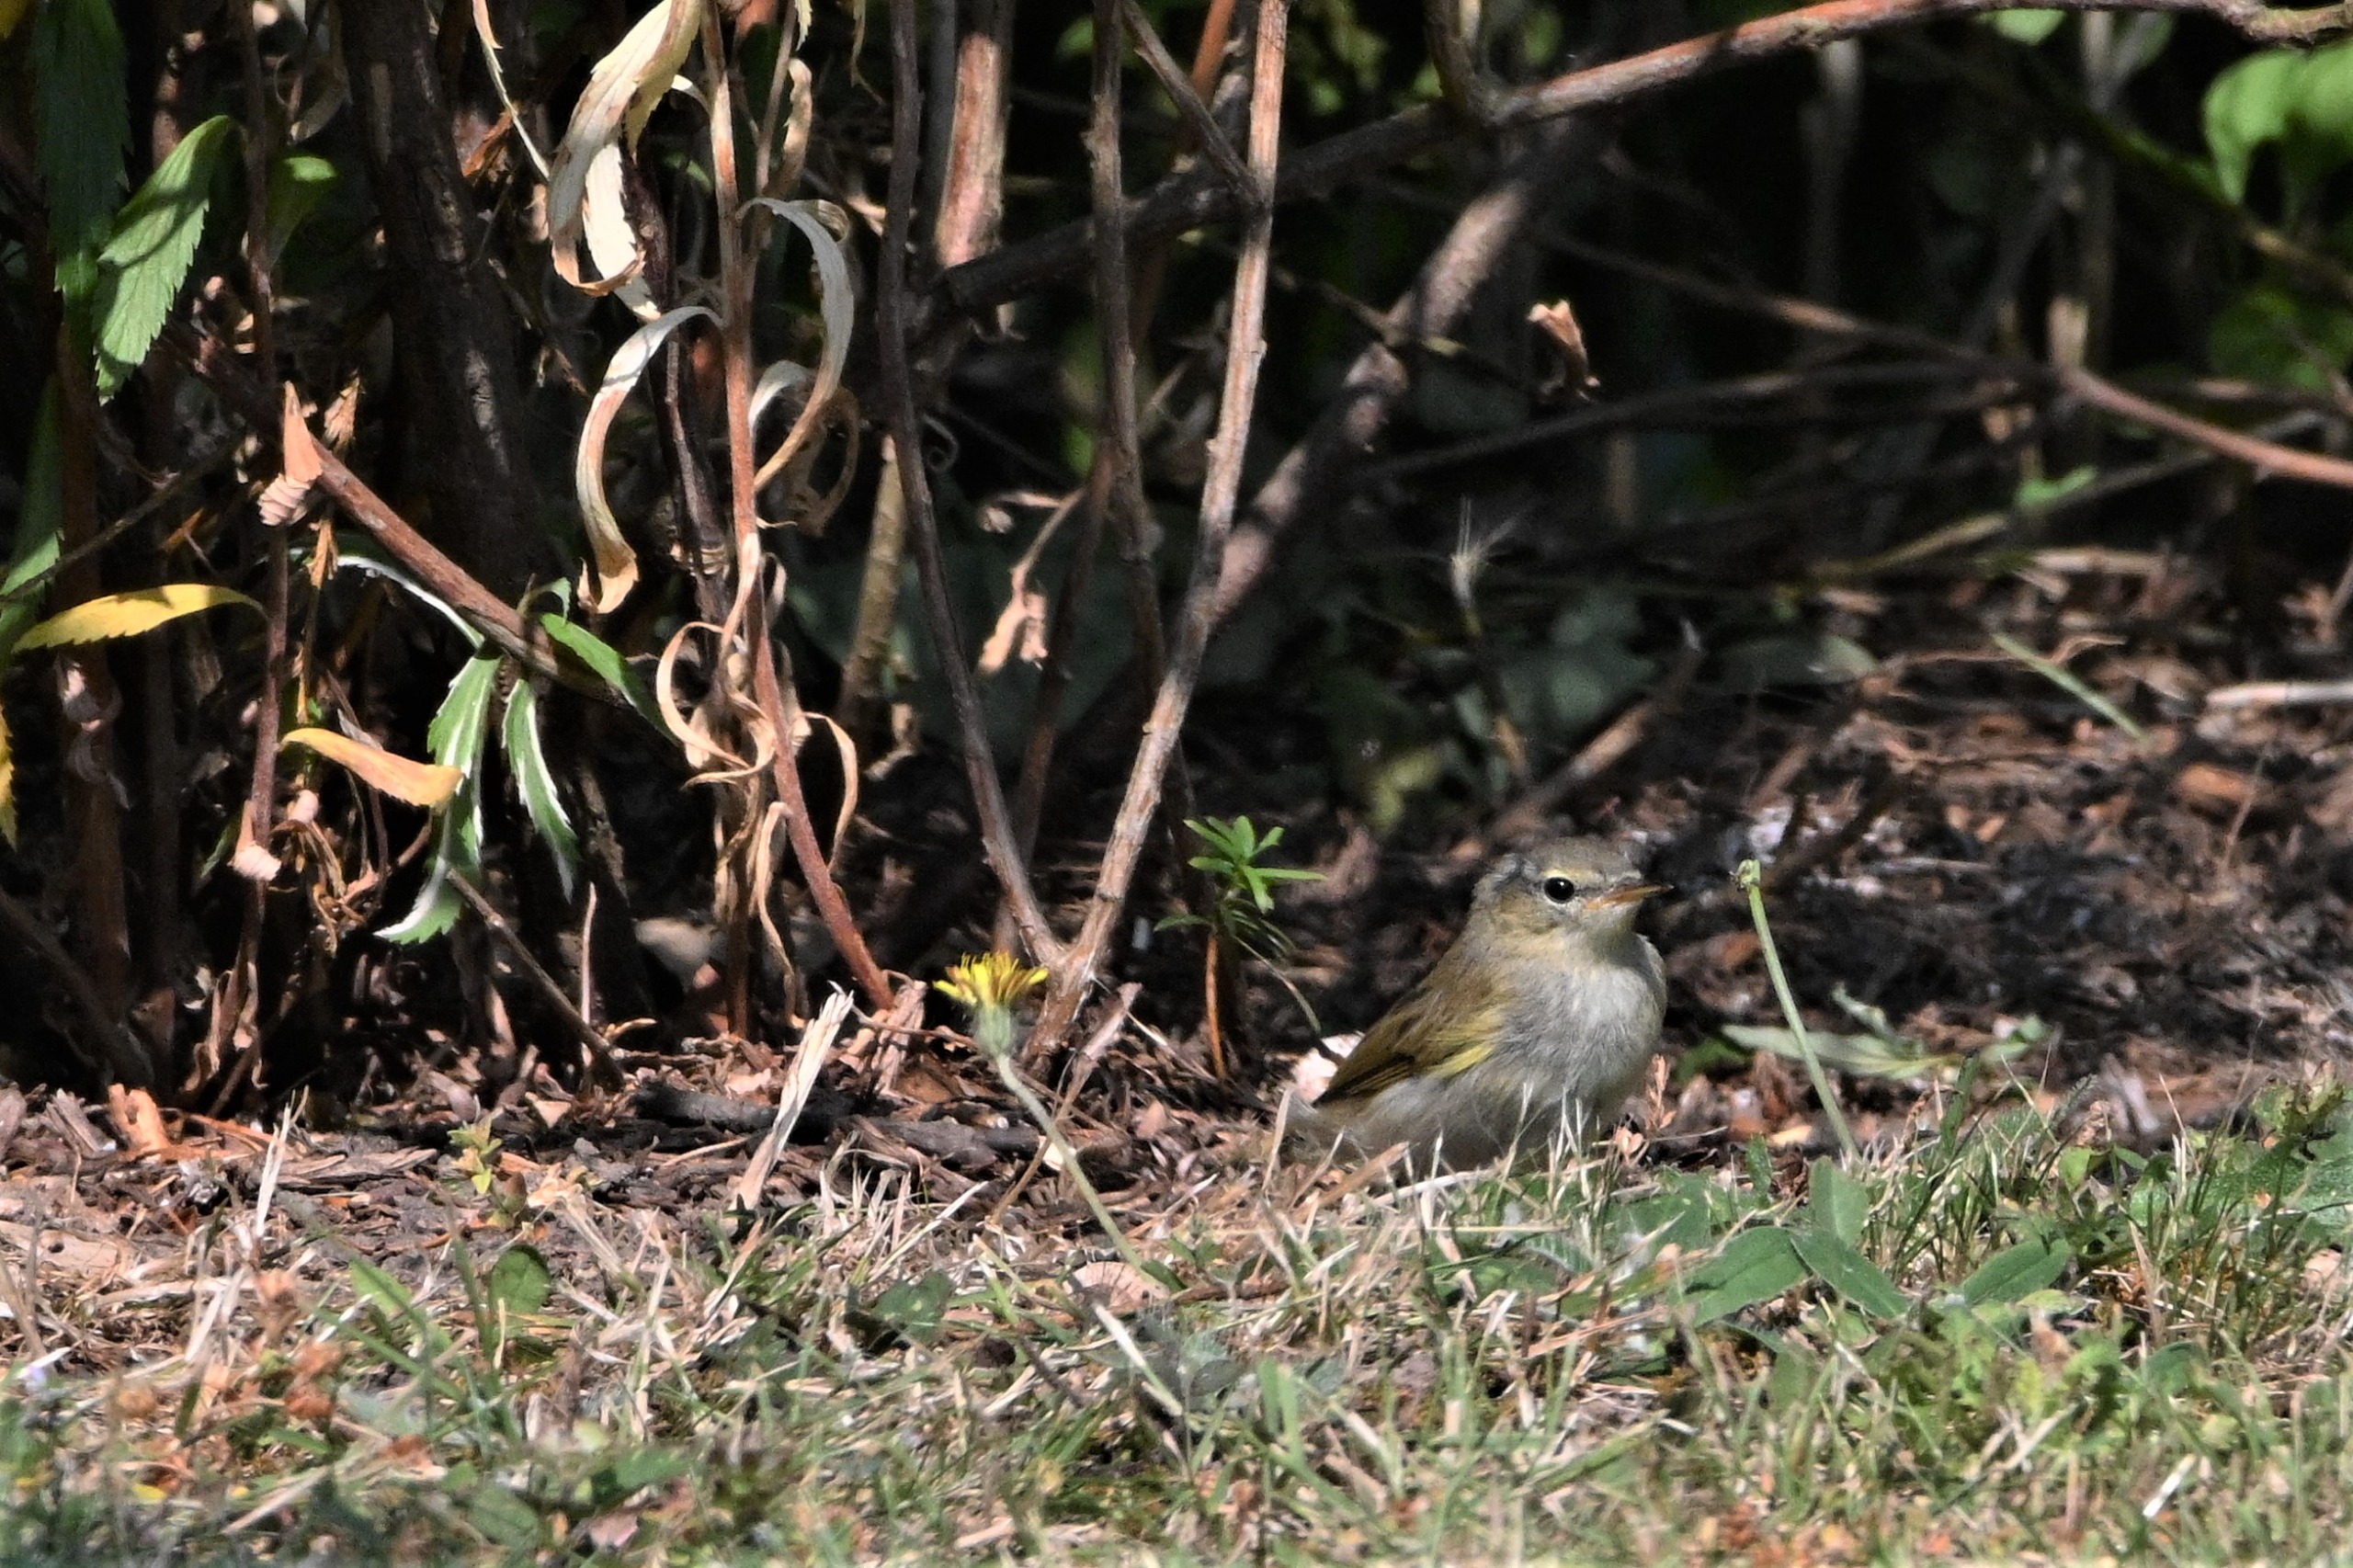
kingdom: Animalia
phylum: Chordata
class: Aves
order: Passeriformes
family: Phylloscopidae
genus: Phylloscopus
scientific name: Phylloscopus collybita
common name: Gransanger
